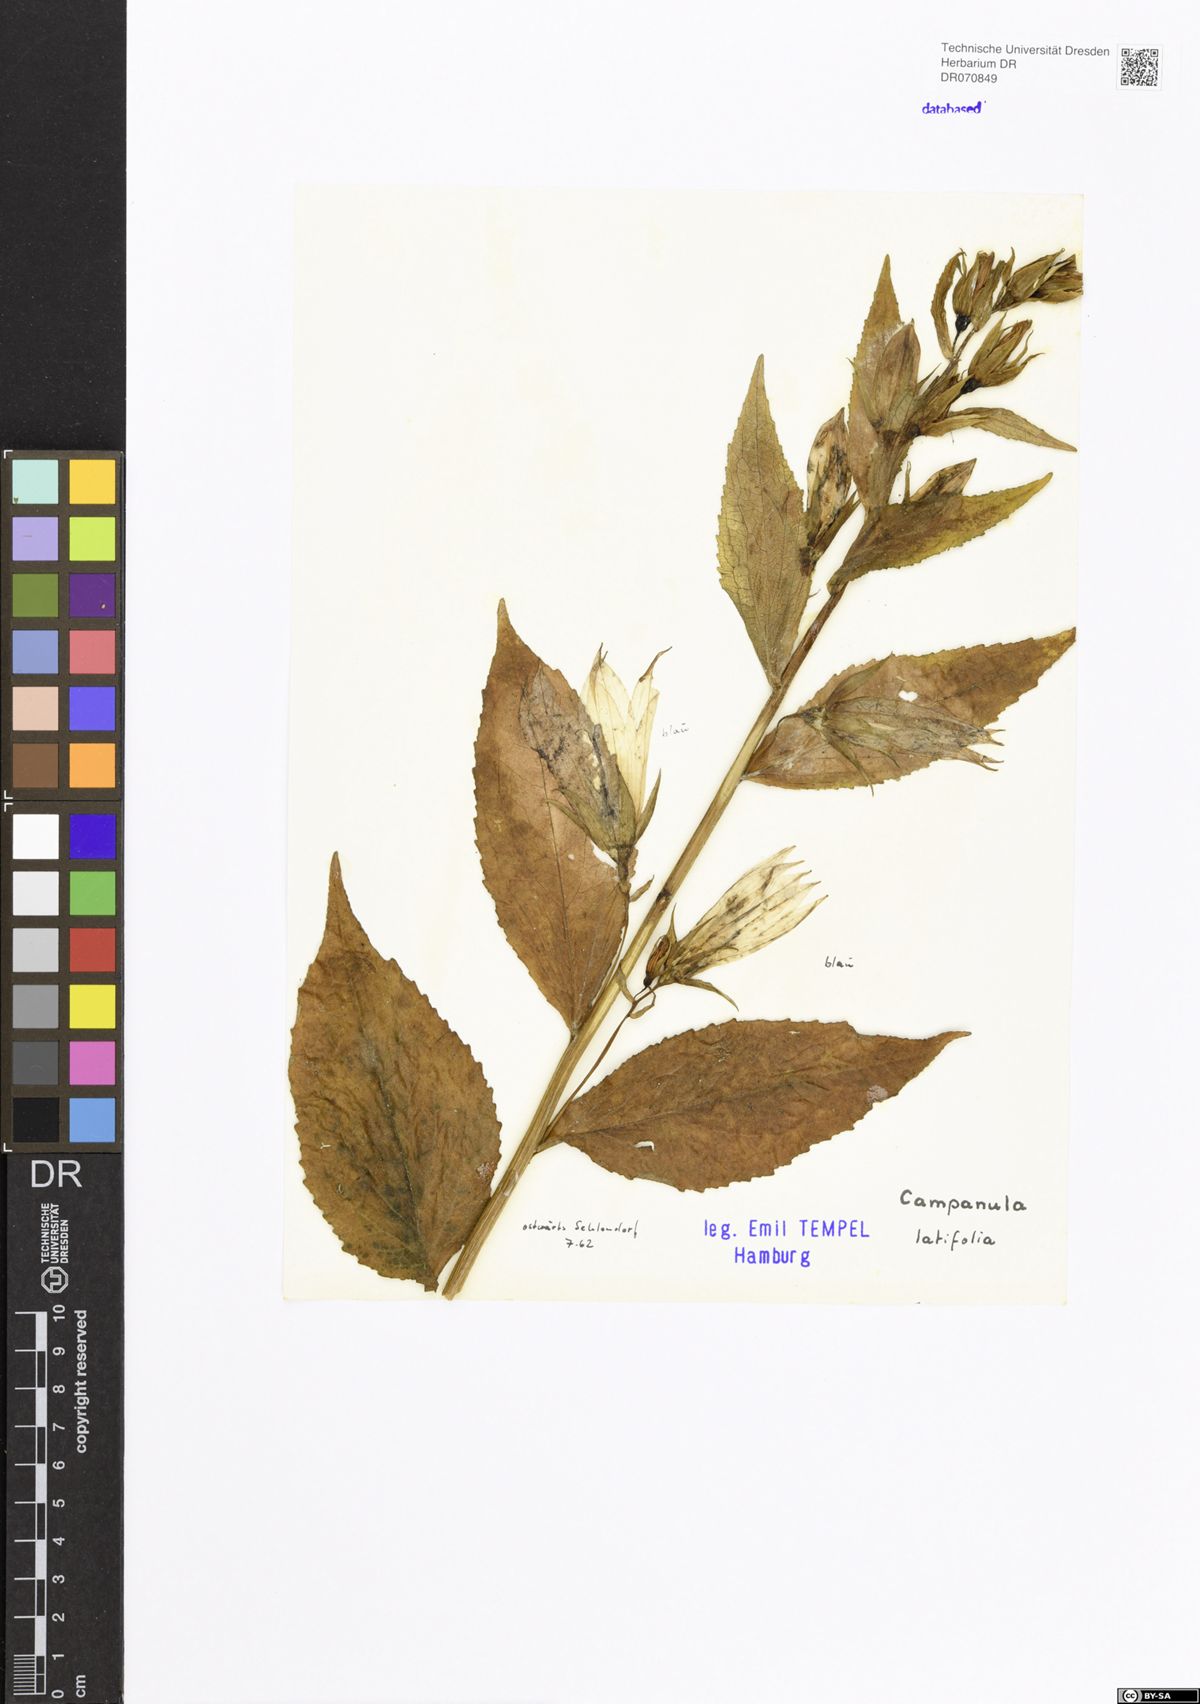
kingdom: Plantae
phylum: Tracheophyta
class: Magnoliopsida
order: Asterales
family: Campanulaceae
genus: Campanula
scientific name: Campanula latifolia
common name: Giant bellflower
